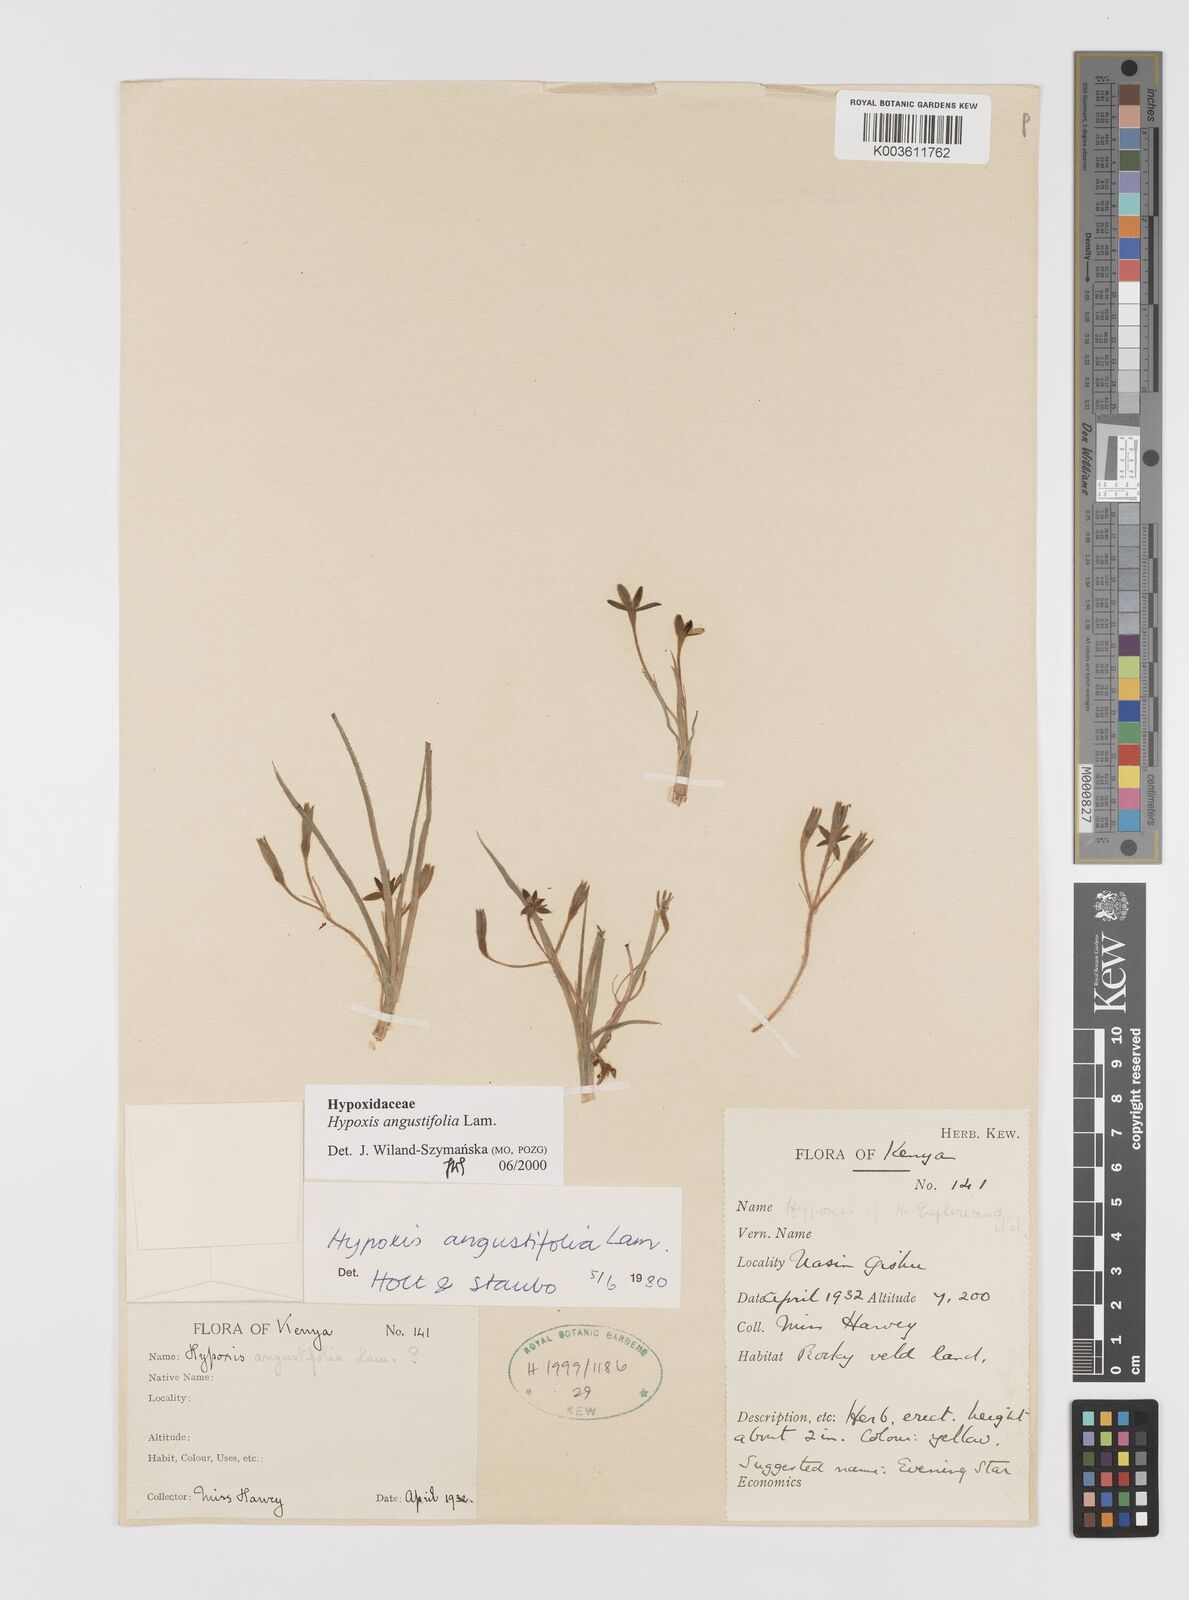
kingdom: Plantae
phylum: Tracheophyta
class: Liliopsida
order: Asparagales
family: Hypoxidaceae
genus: Hypoxis
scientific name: Hypoxis angustifolia
